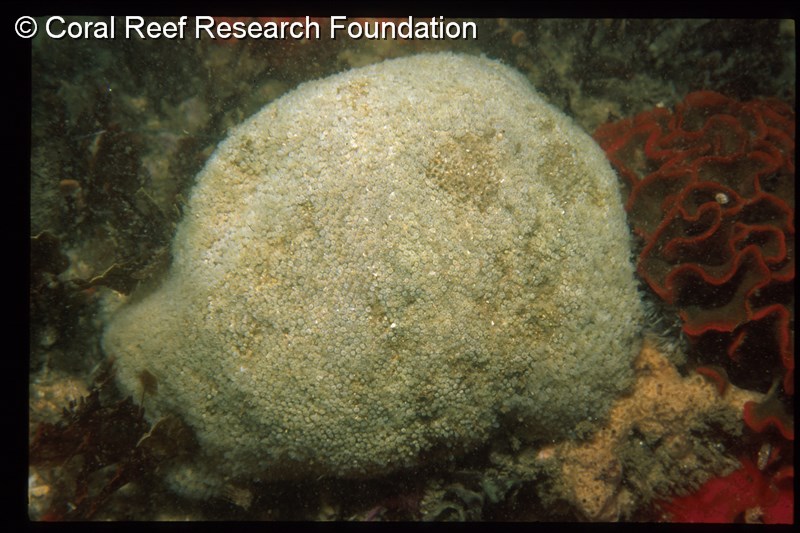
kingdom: Animalia
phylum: Chordata
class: Ascidiacea
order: Aplousobranchia
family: Clavelinidae
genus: Pycnoclavella
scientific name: Pycnoclavella filamentosa
